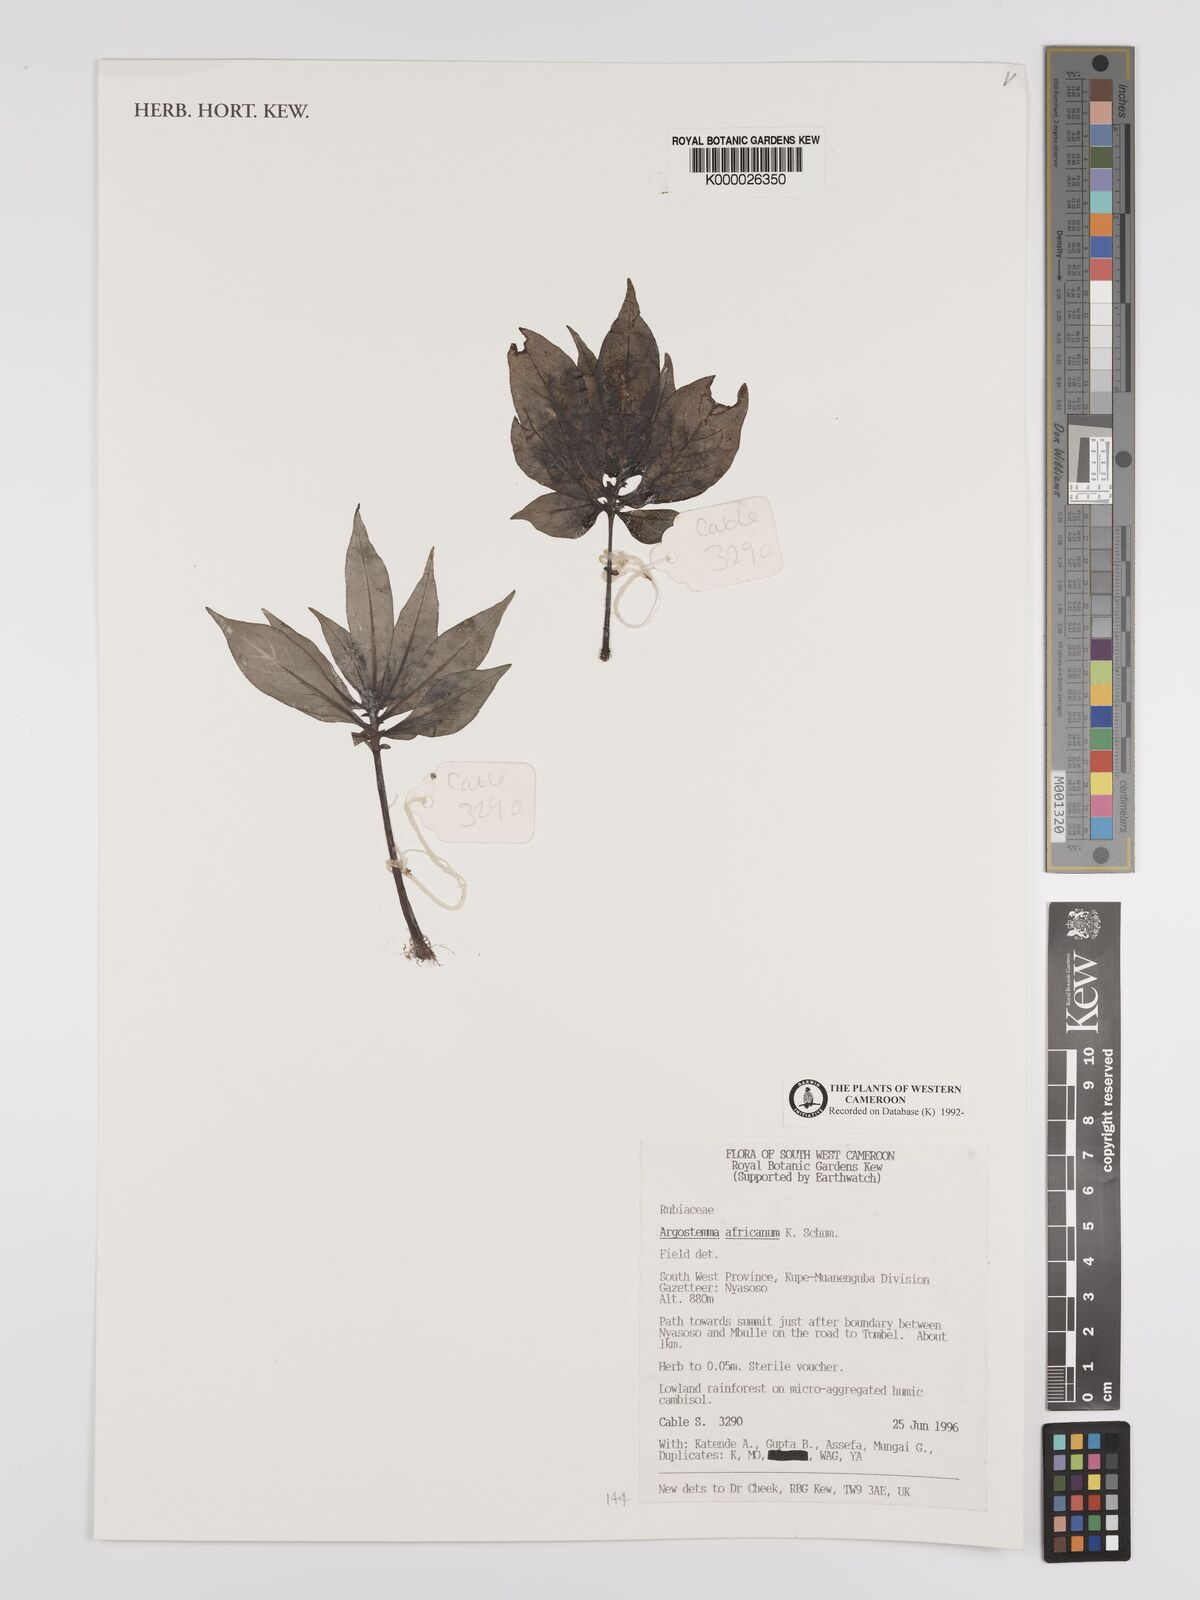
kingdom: Plantae
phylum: Tracheophyta
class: Magnoliopsida
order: Gentianales
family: Rubiaceae
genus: Argostemma
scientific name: Argostemma africanum
